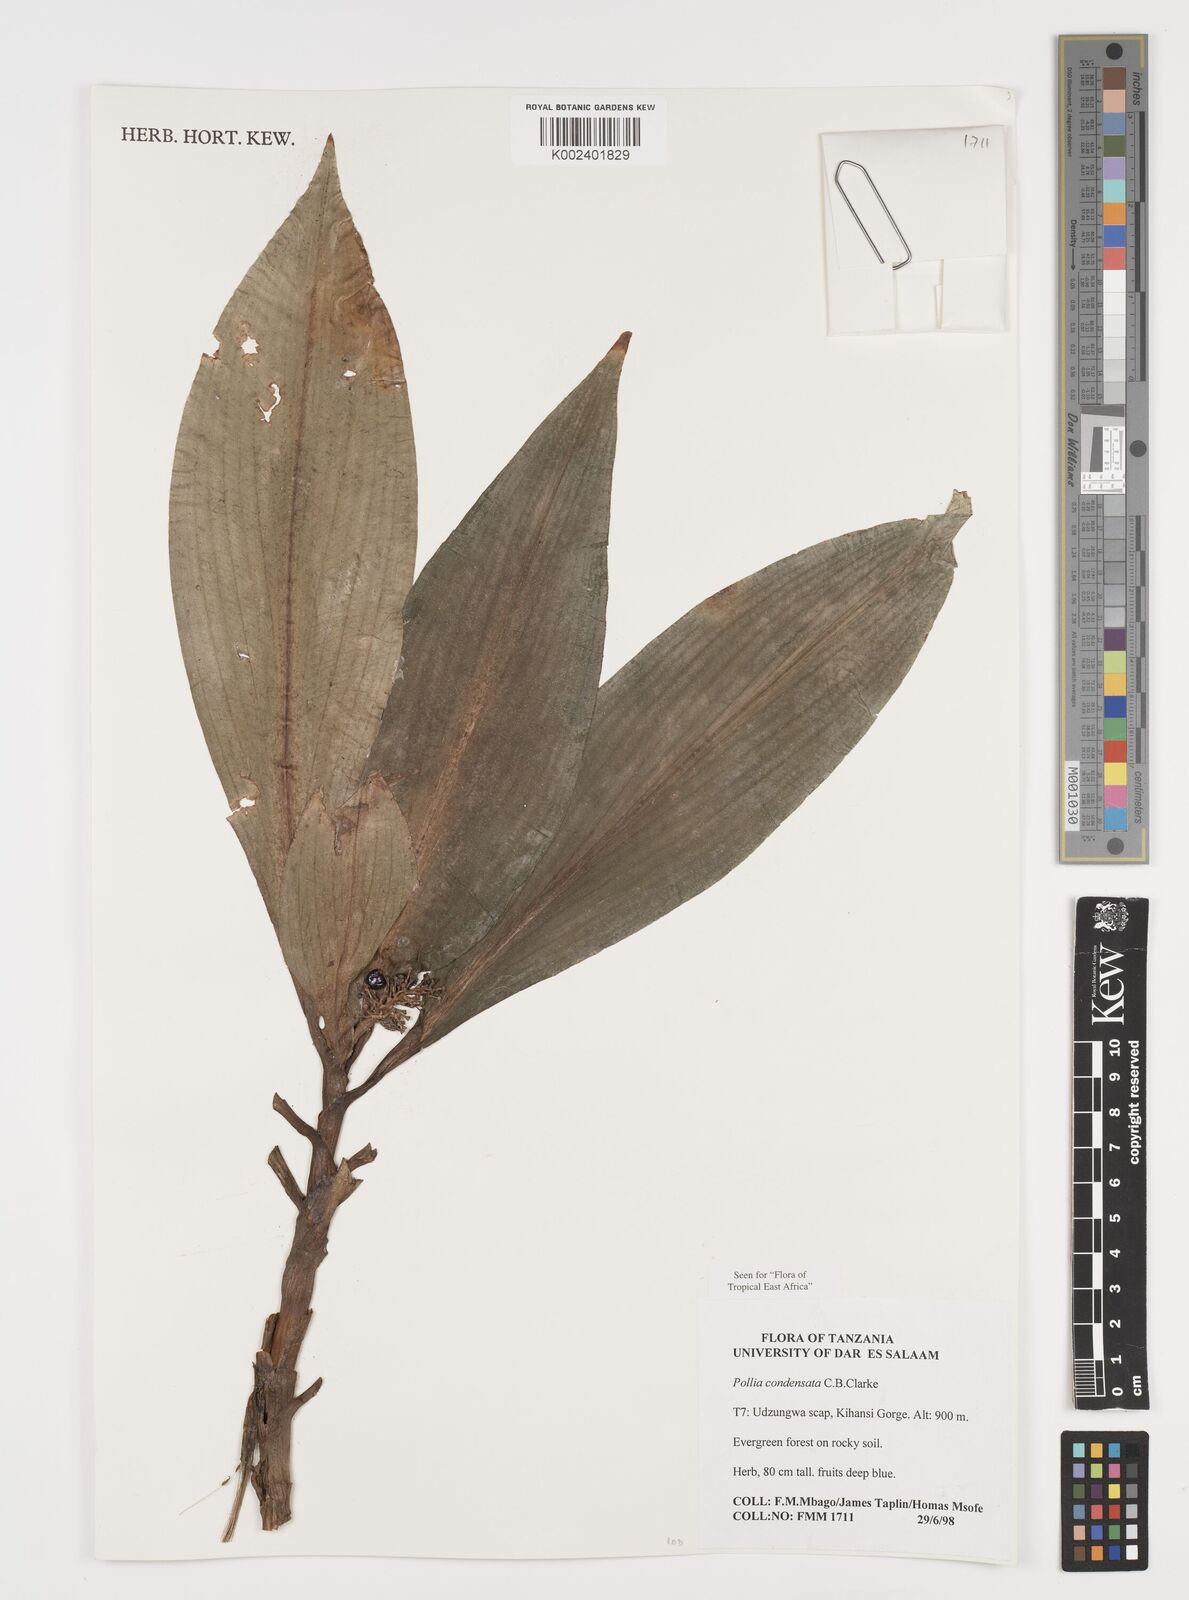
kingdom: Plantae
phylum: Tracheophyta
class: Liliopsida
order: Commelinales
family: Commelinaceae
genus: Pollia
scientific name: Pollia condensata
